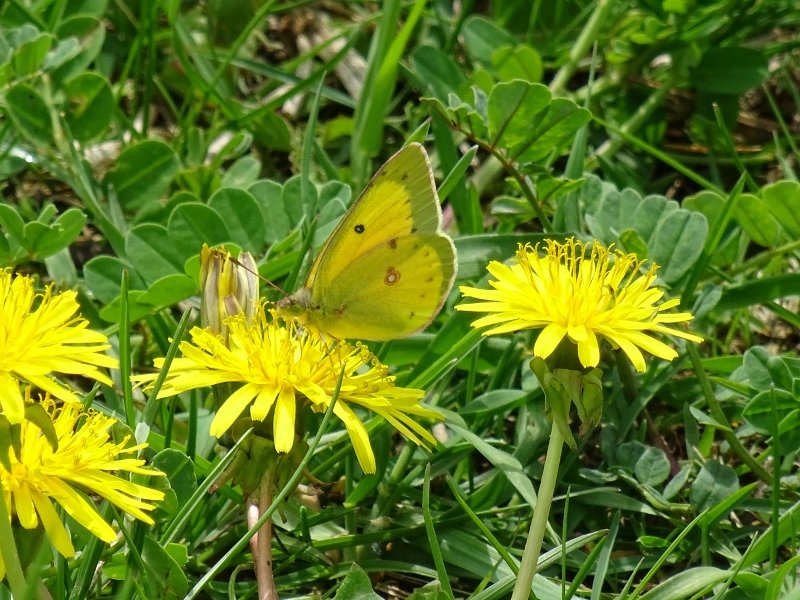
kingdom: Animalia
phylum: Arthropoda
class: Insecta
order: Lepidoptera
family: Pieridae
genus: Colias
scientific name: Colias eurytheme
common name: Orange Sulphur
